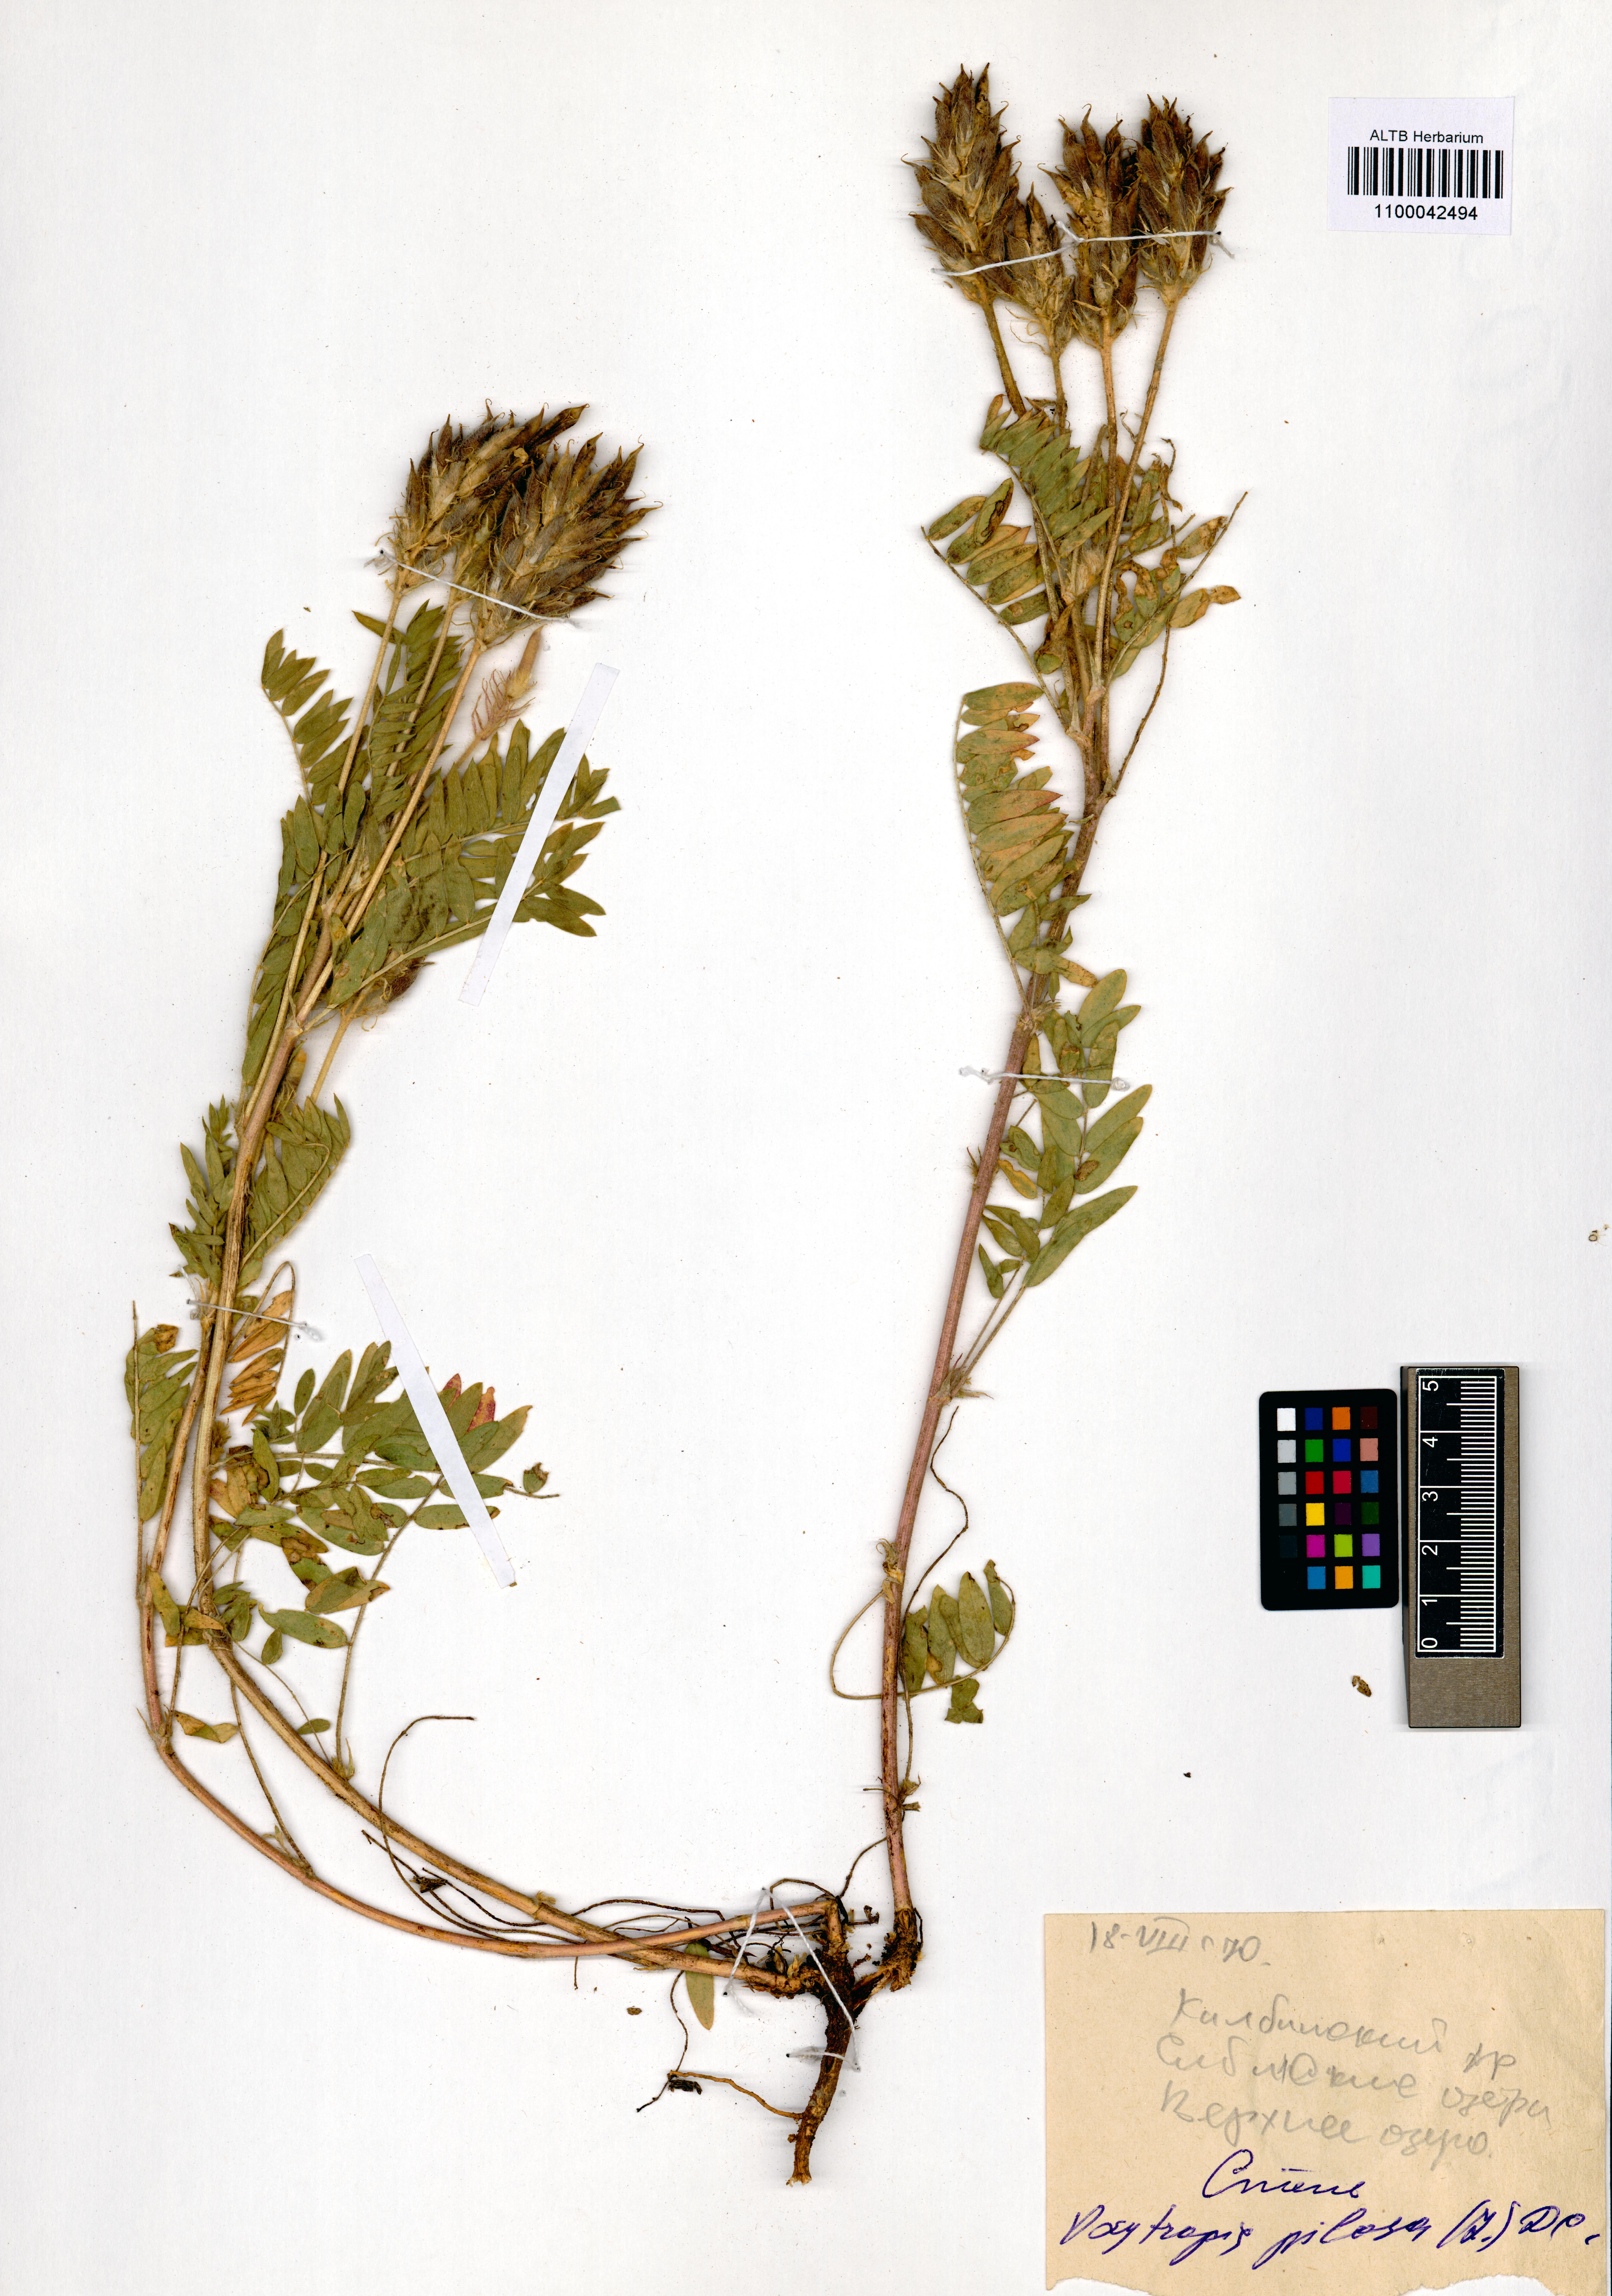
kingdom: Plantae
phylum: Tracheophyta
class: Magnoliopsida
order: Fabales
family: Fabaceae
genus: Oxytropis
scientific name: Oxytropis pilosa
